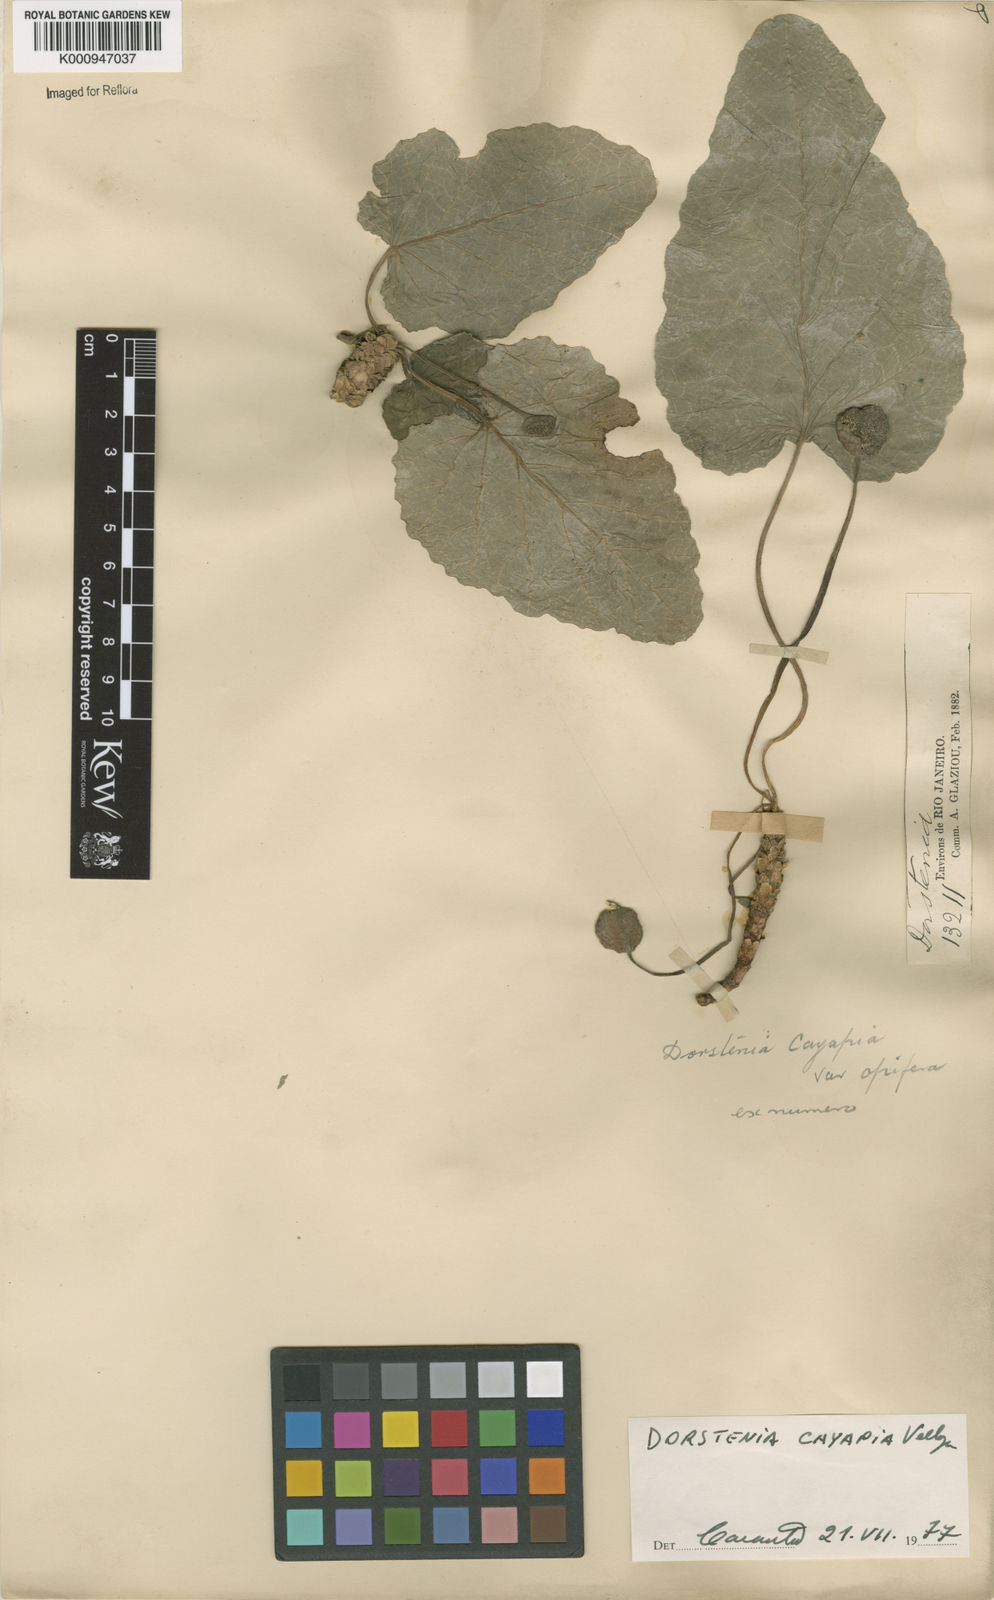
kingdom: Plantae
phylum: Tracheophyta
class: Magnoliopsida
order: Rosales
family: Moraceae
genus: Dorstenia
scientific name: Dorstenia cayapia
